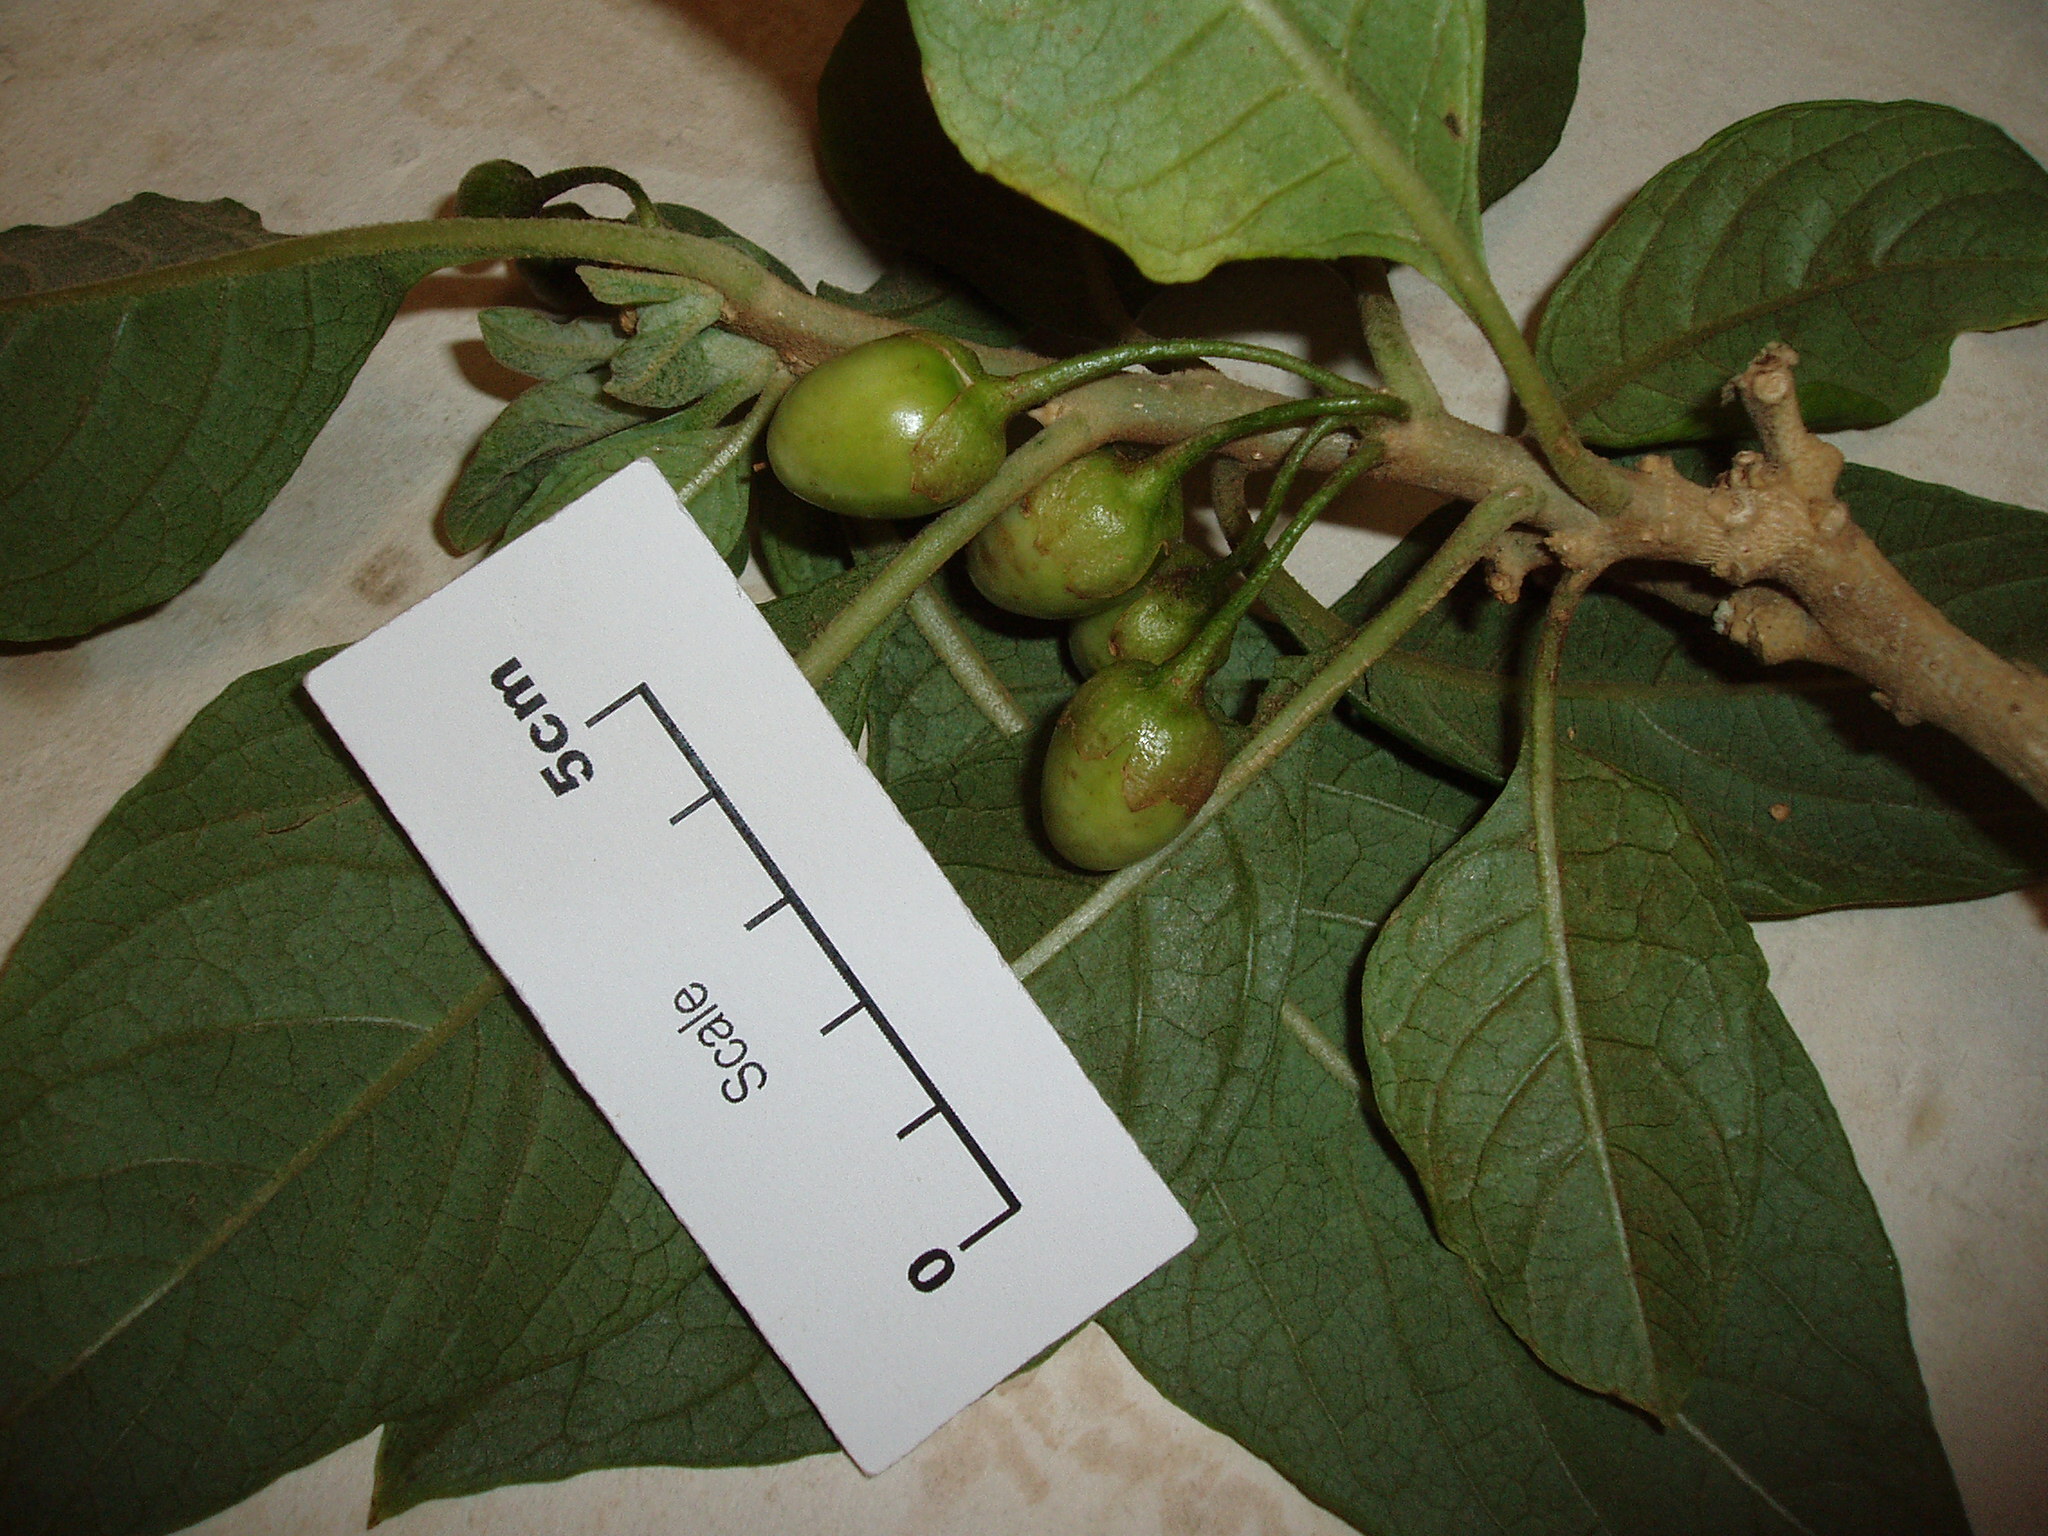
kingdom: Plantae
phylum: Tracheophyta
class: Magnoliopsida
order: Solanales
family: Solanaceae
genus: Iochroma
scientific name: Iochroma gesnerioides
